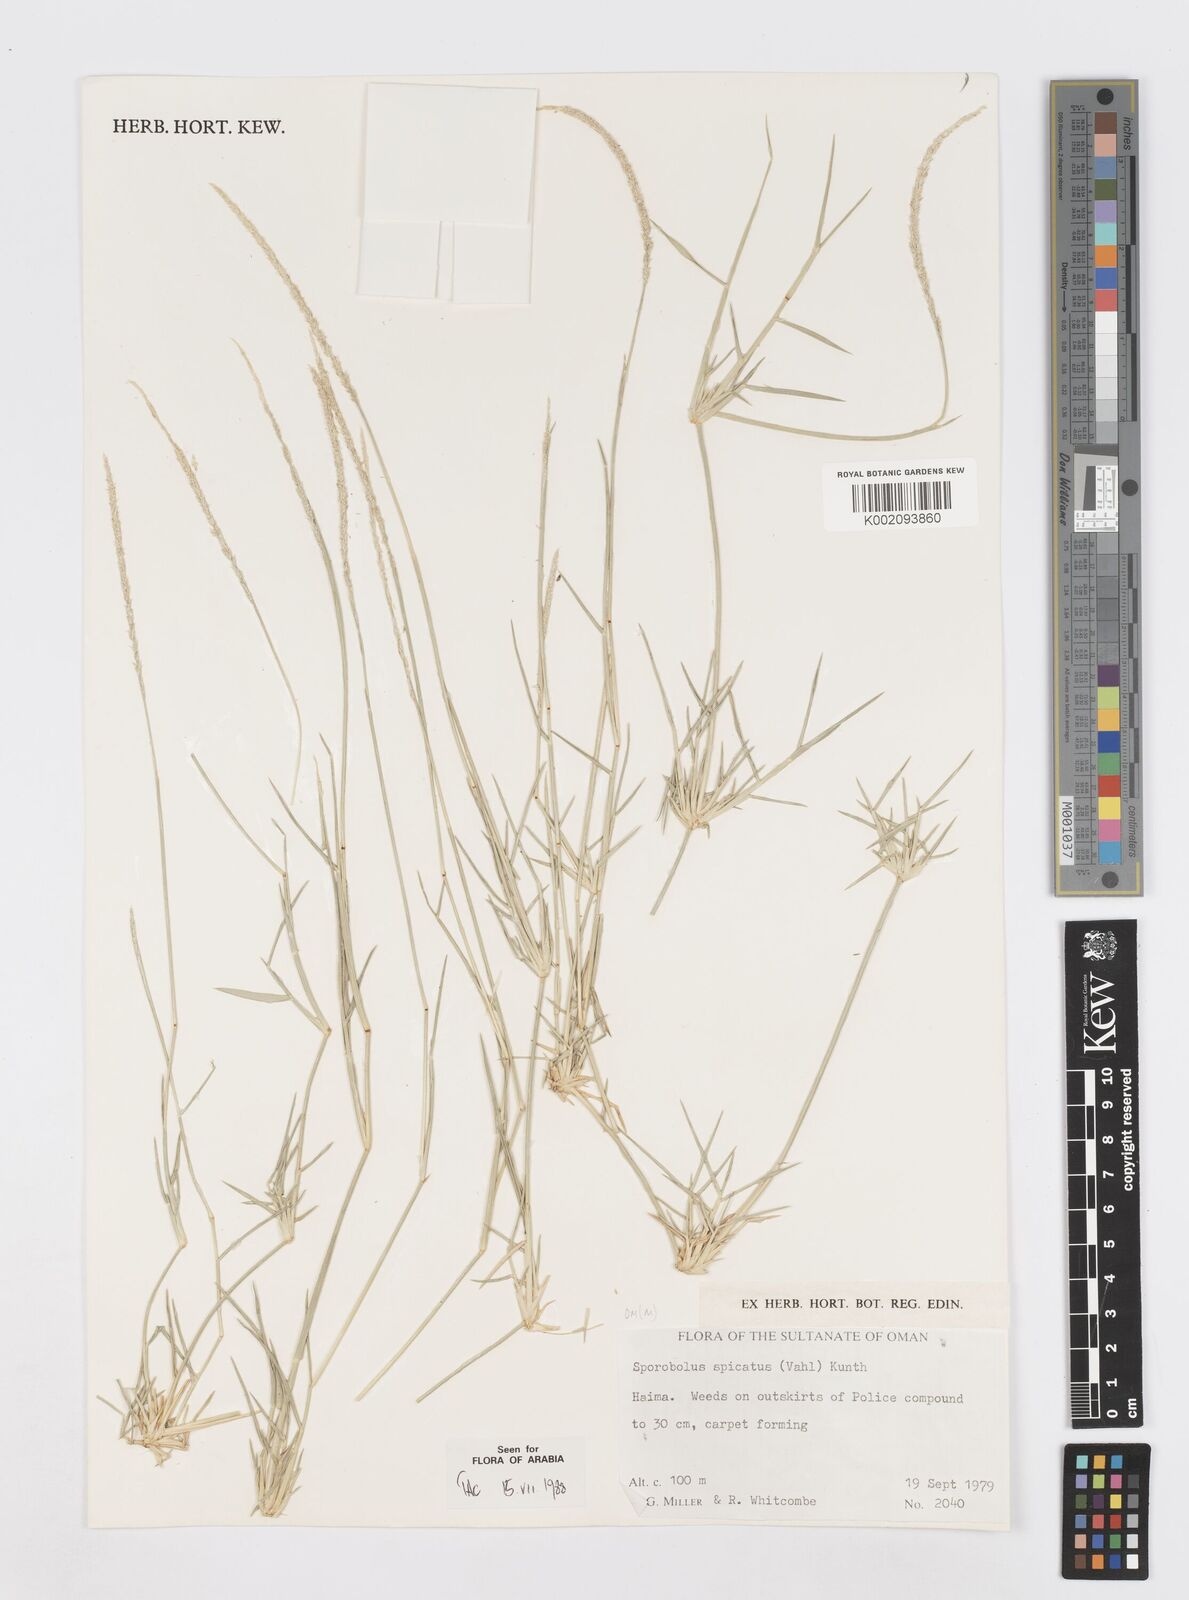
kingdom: Plantae
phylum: Tracheophyta
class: Liliopsida
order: Poales
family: Poaceae
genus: Sporobolus
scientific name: Sporobolus spicatus
